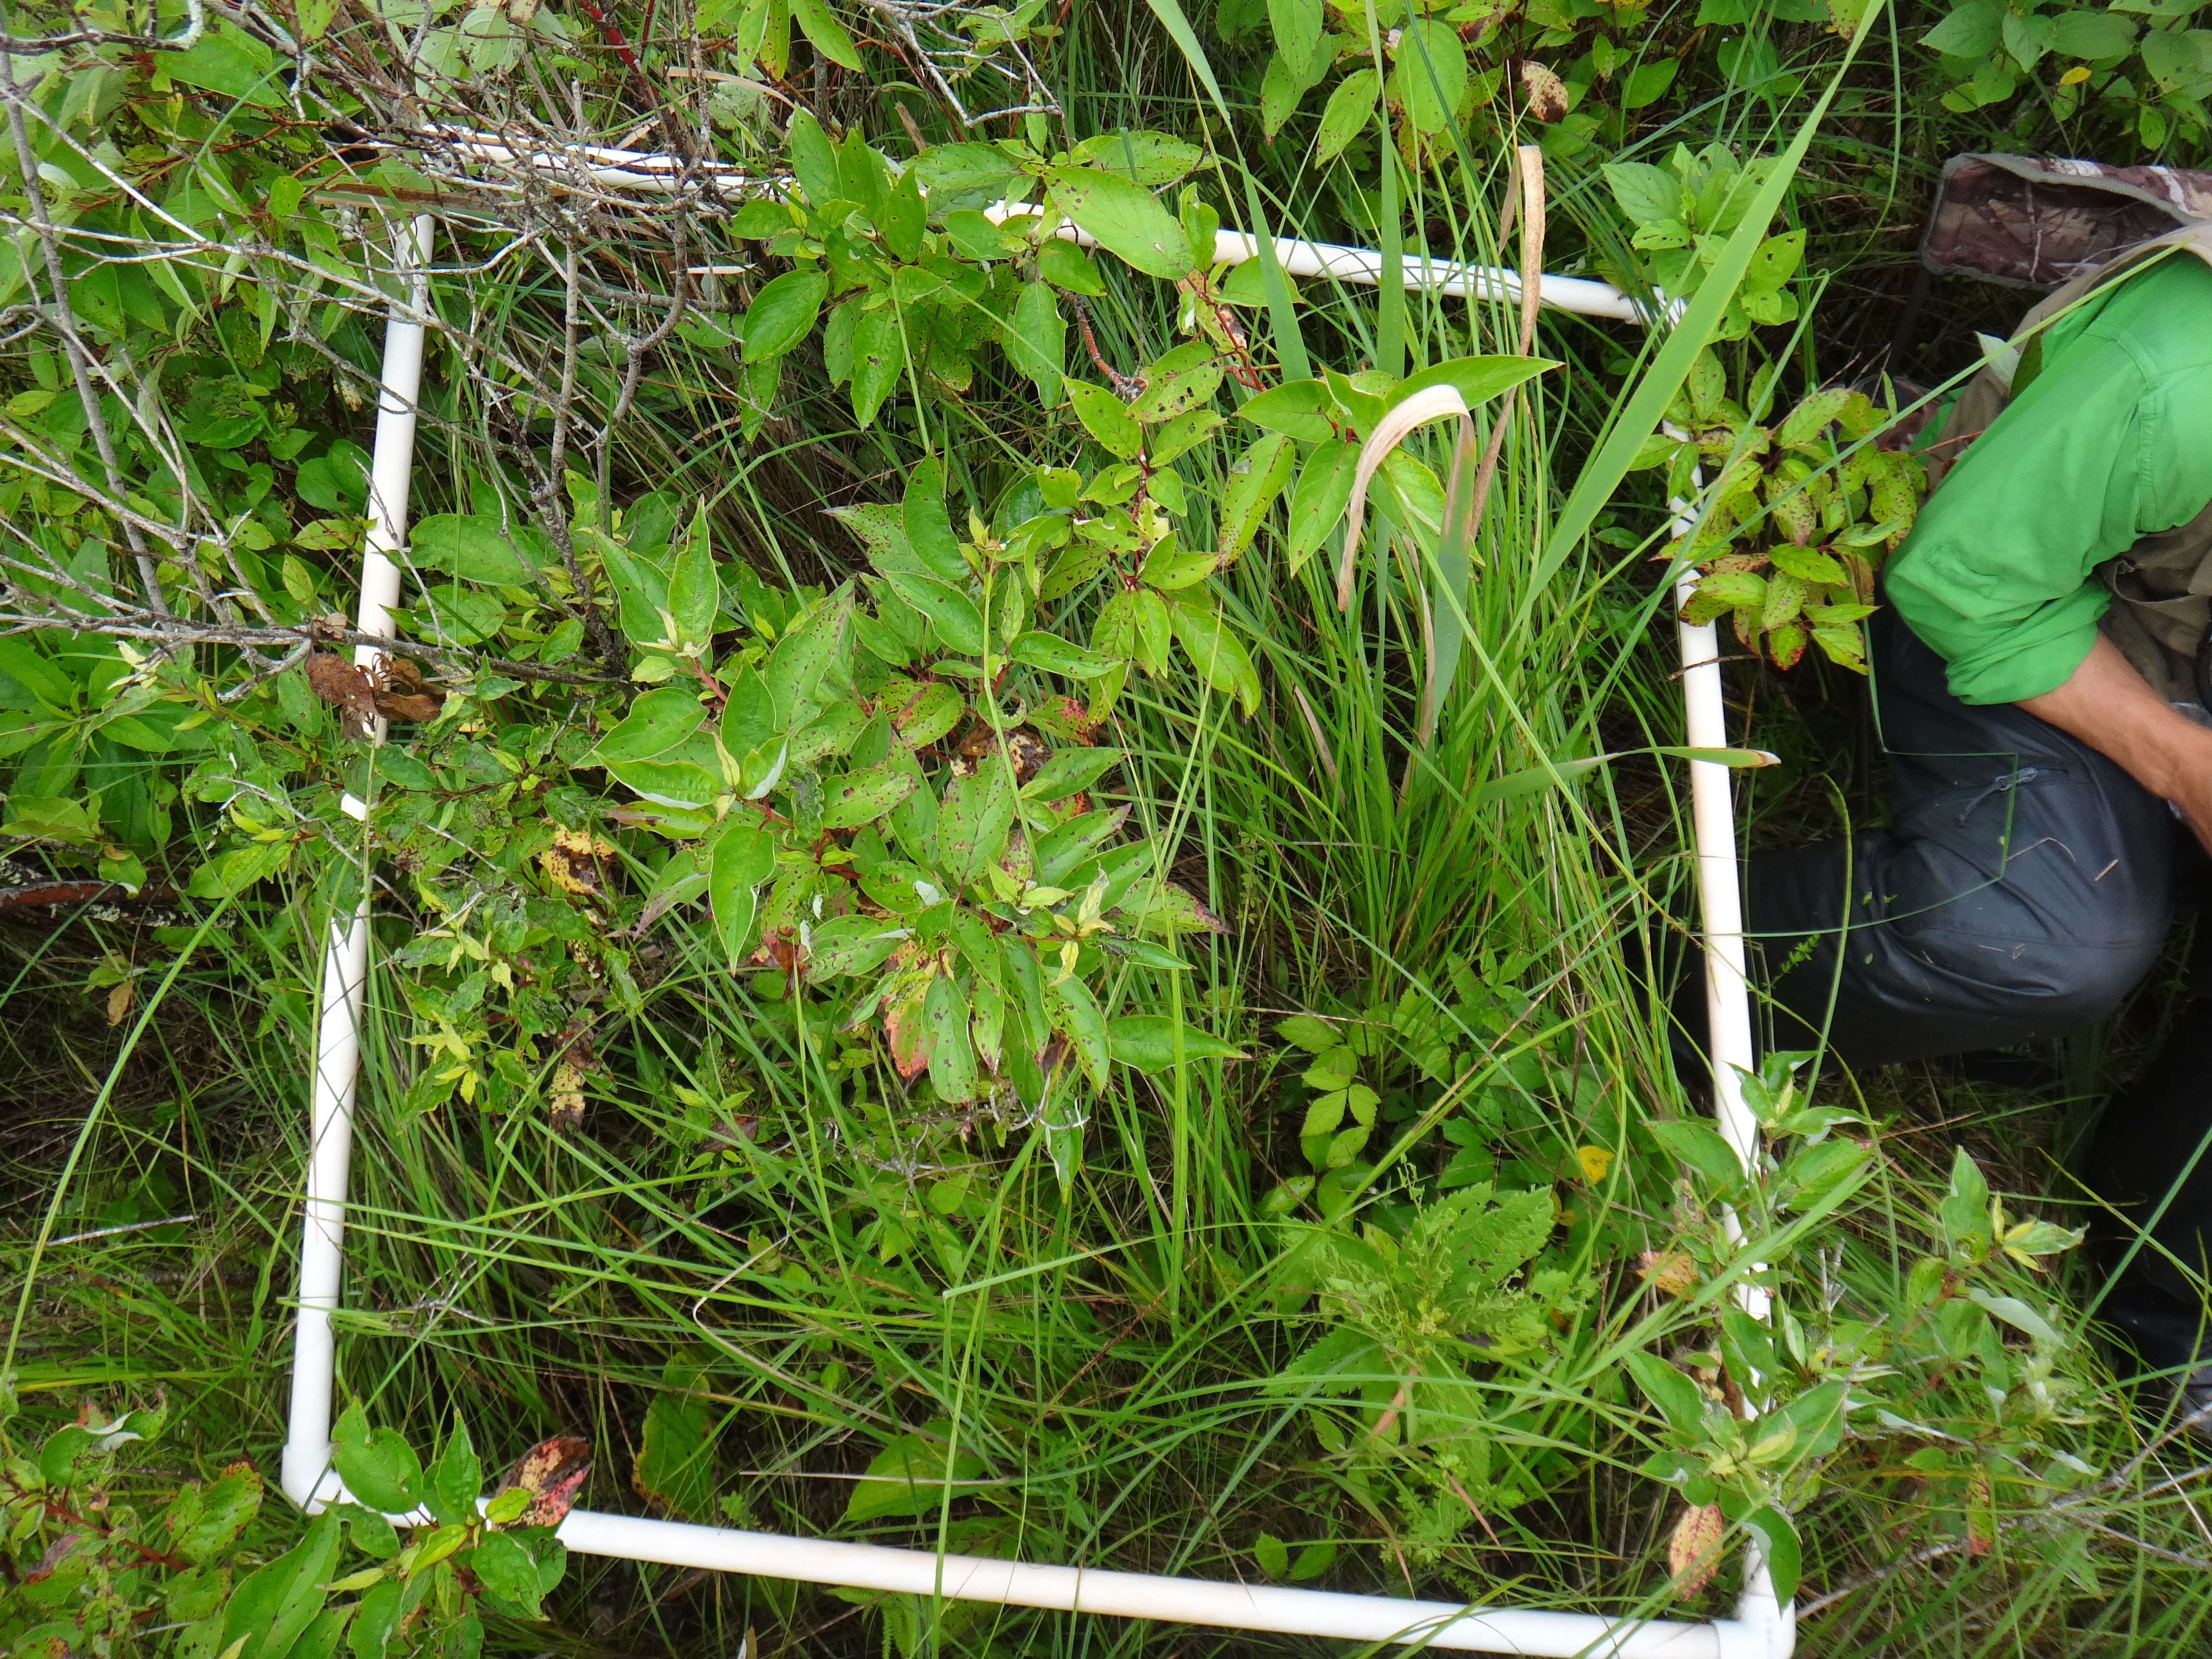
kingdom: Plantae
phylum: Tracheophyta
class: Polypodiopsida
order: Polypodiales
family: Thelypteridaceae
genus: Thelypteris
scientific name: Thelypteris palustris
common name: Marsh fern
